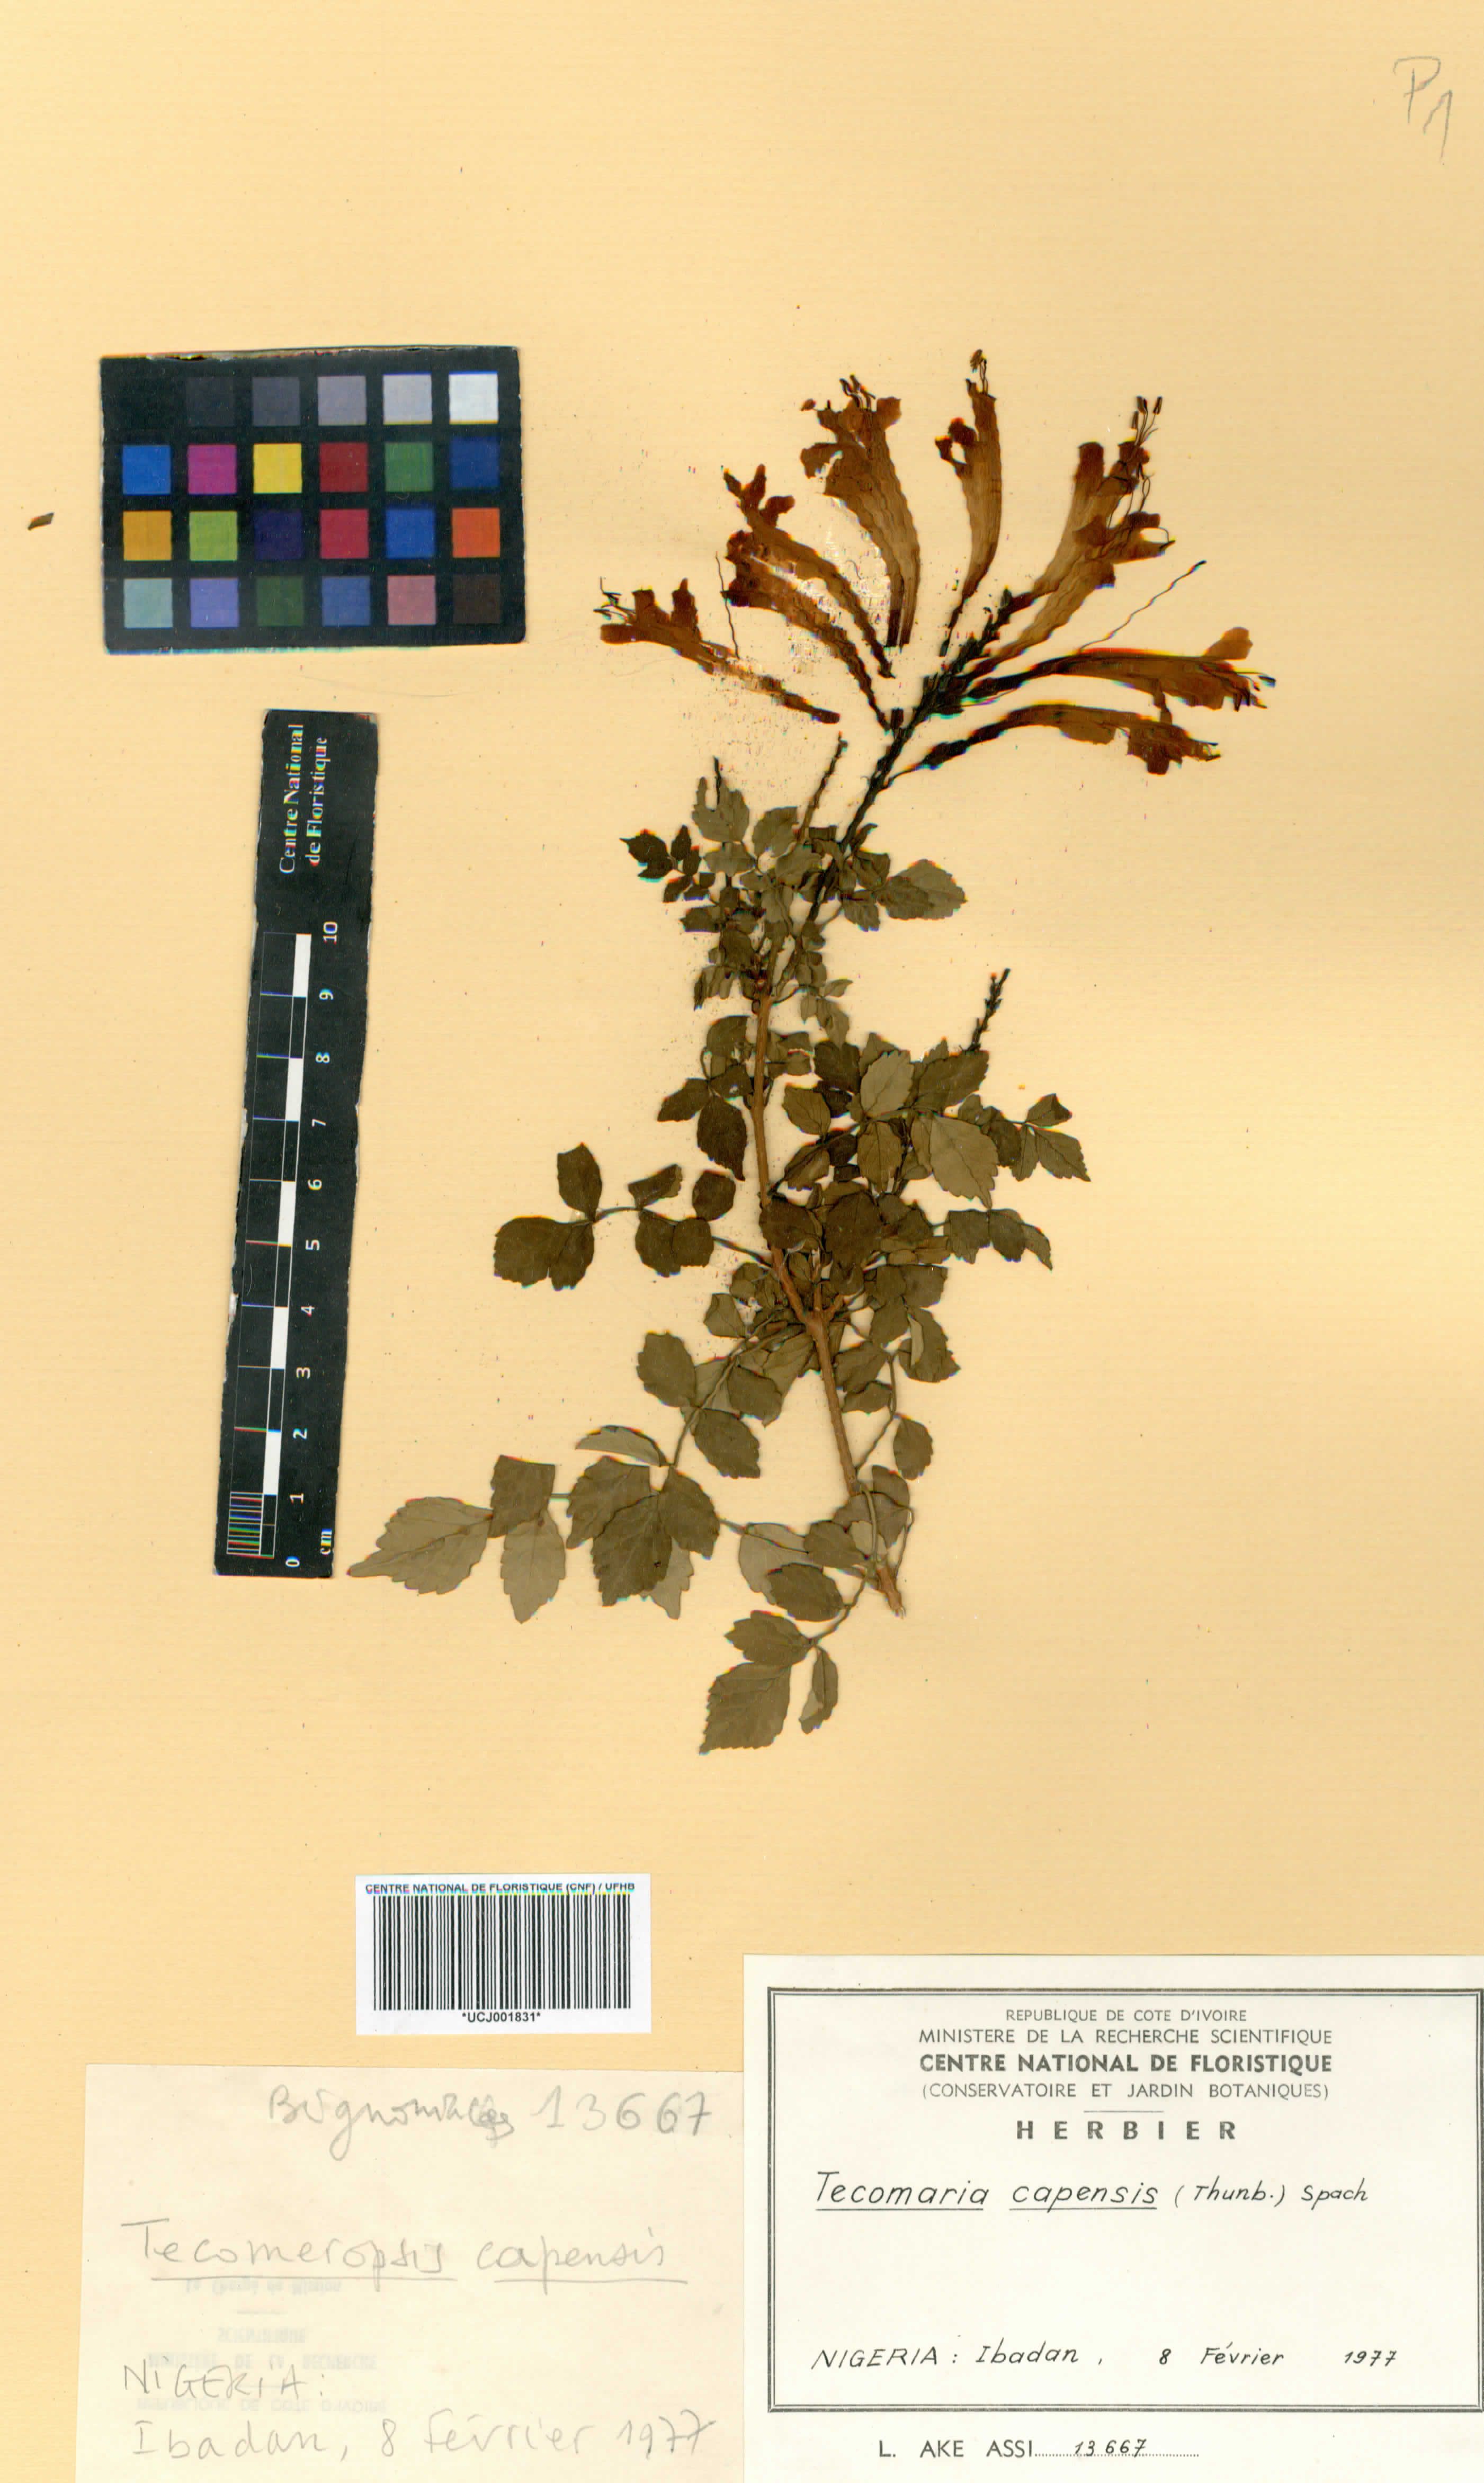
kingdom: Plantae
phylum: Tracheophyta
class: Magnoliopsida
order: Lamiales
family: Bignoniaceae
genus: Tecomaria
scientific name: Tecomaria capensis
